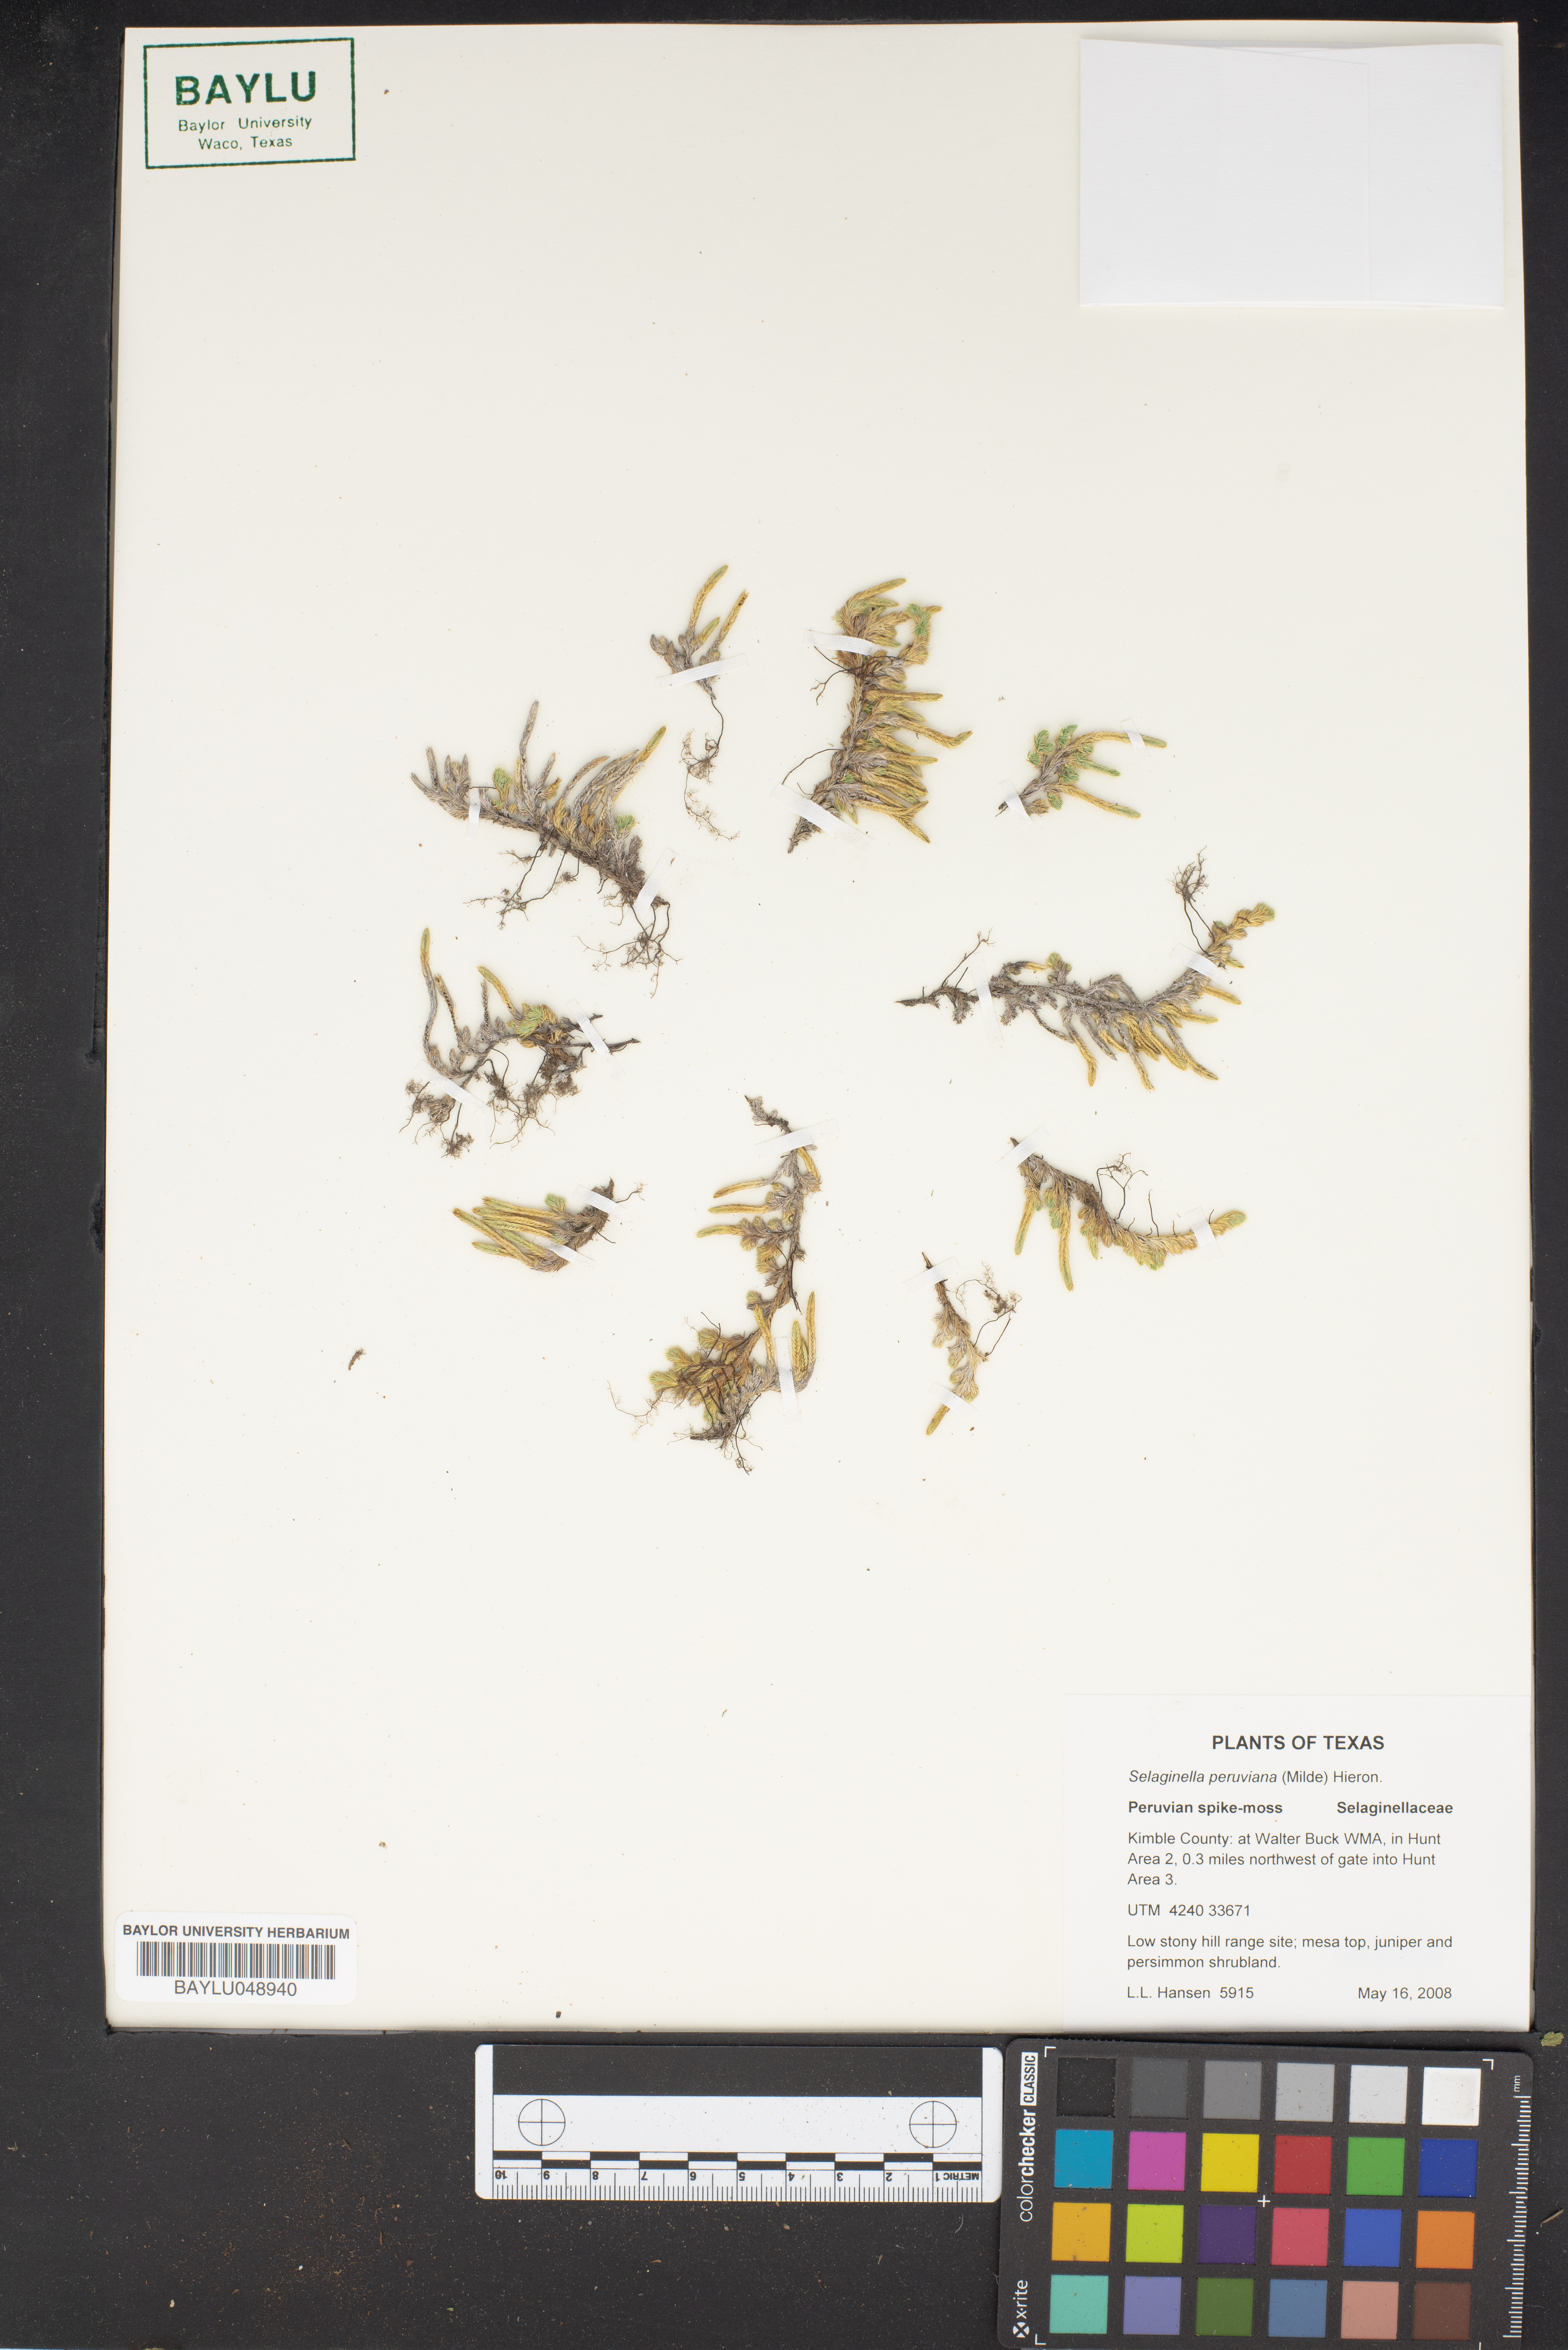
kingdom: Plantae
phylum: Tracheophyta
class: Lycopodiopsida
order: Selaginellales
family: Selaginellaceae
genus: Selaginella
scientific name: Selaginella peruviana
